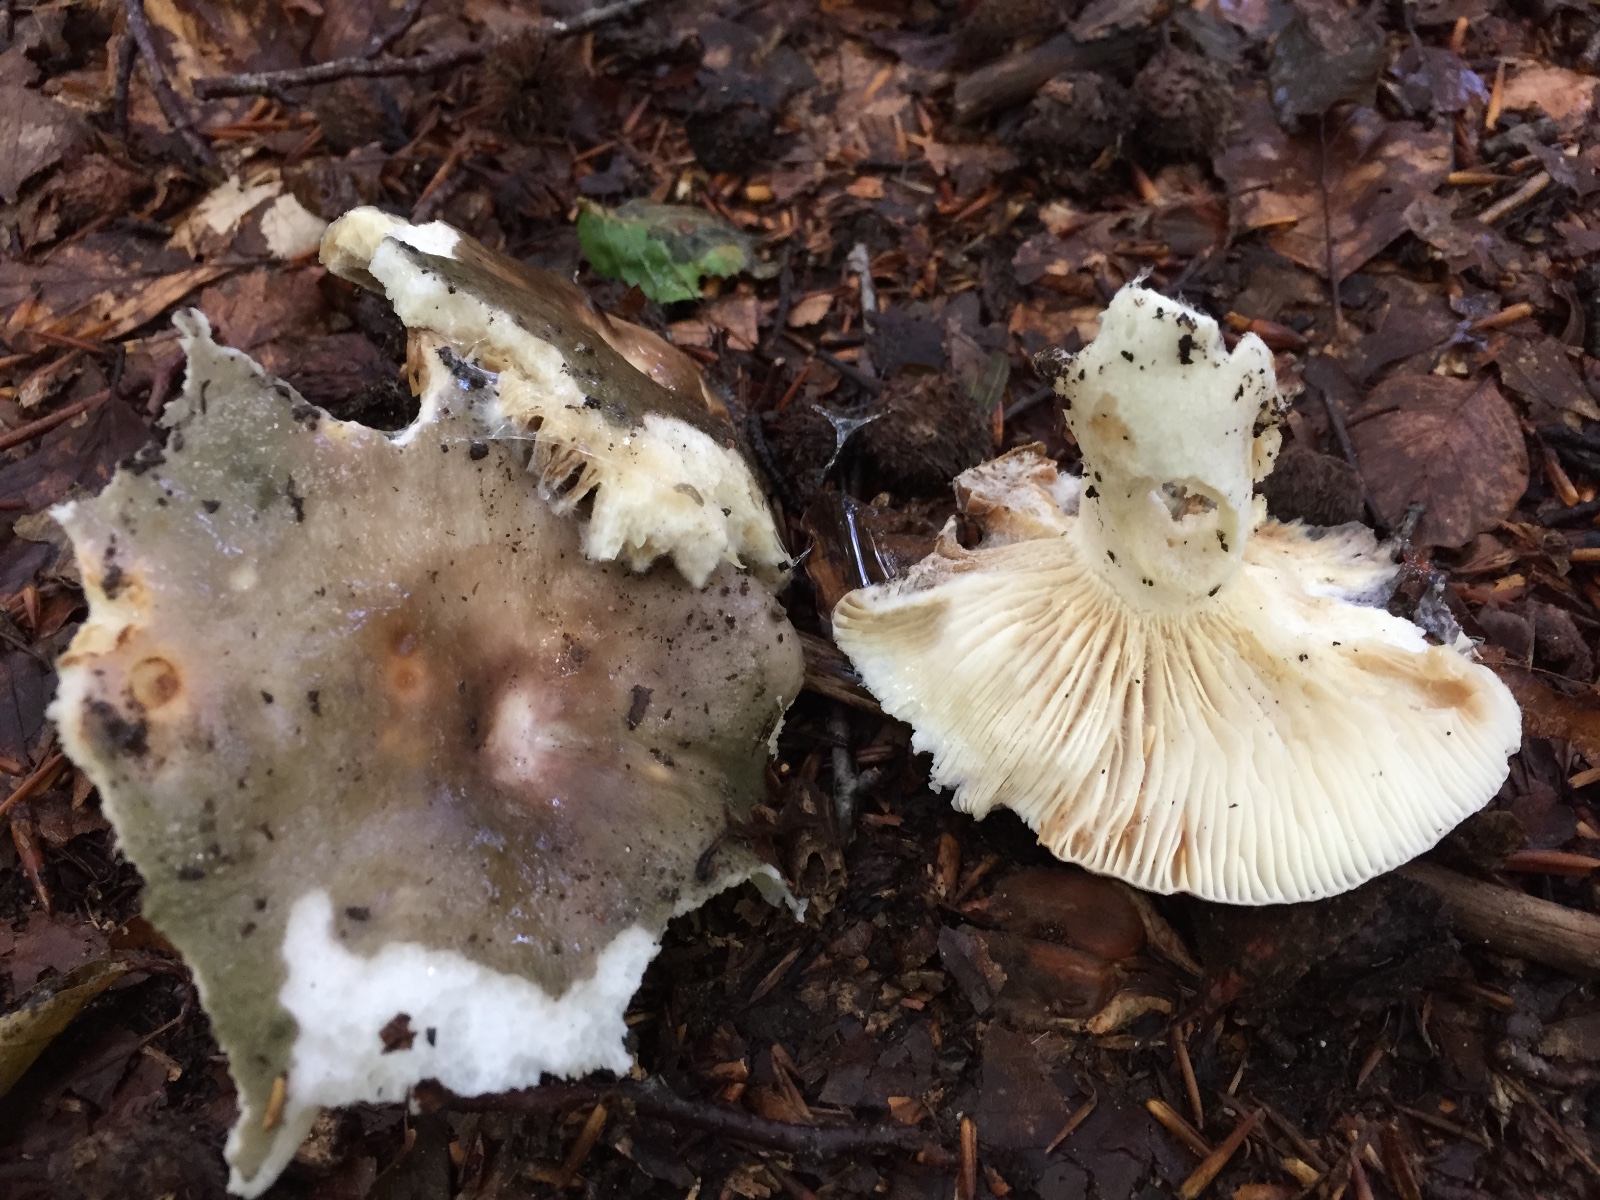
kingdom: Fungi
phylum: Basidiomycota
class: Agaricomycetes
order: Russulales
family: Russulaceae
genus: Russula
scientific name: Russula cyanoxantha
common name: broget skørhat
